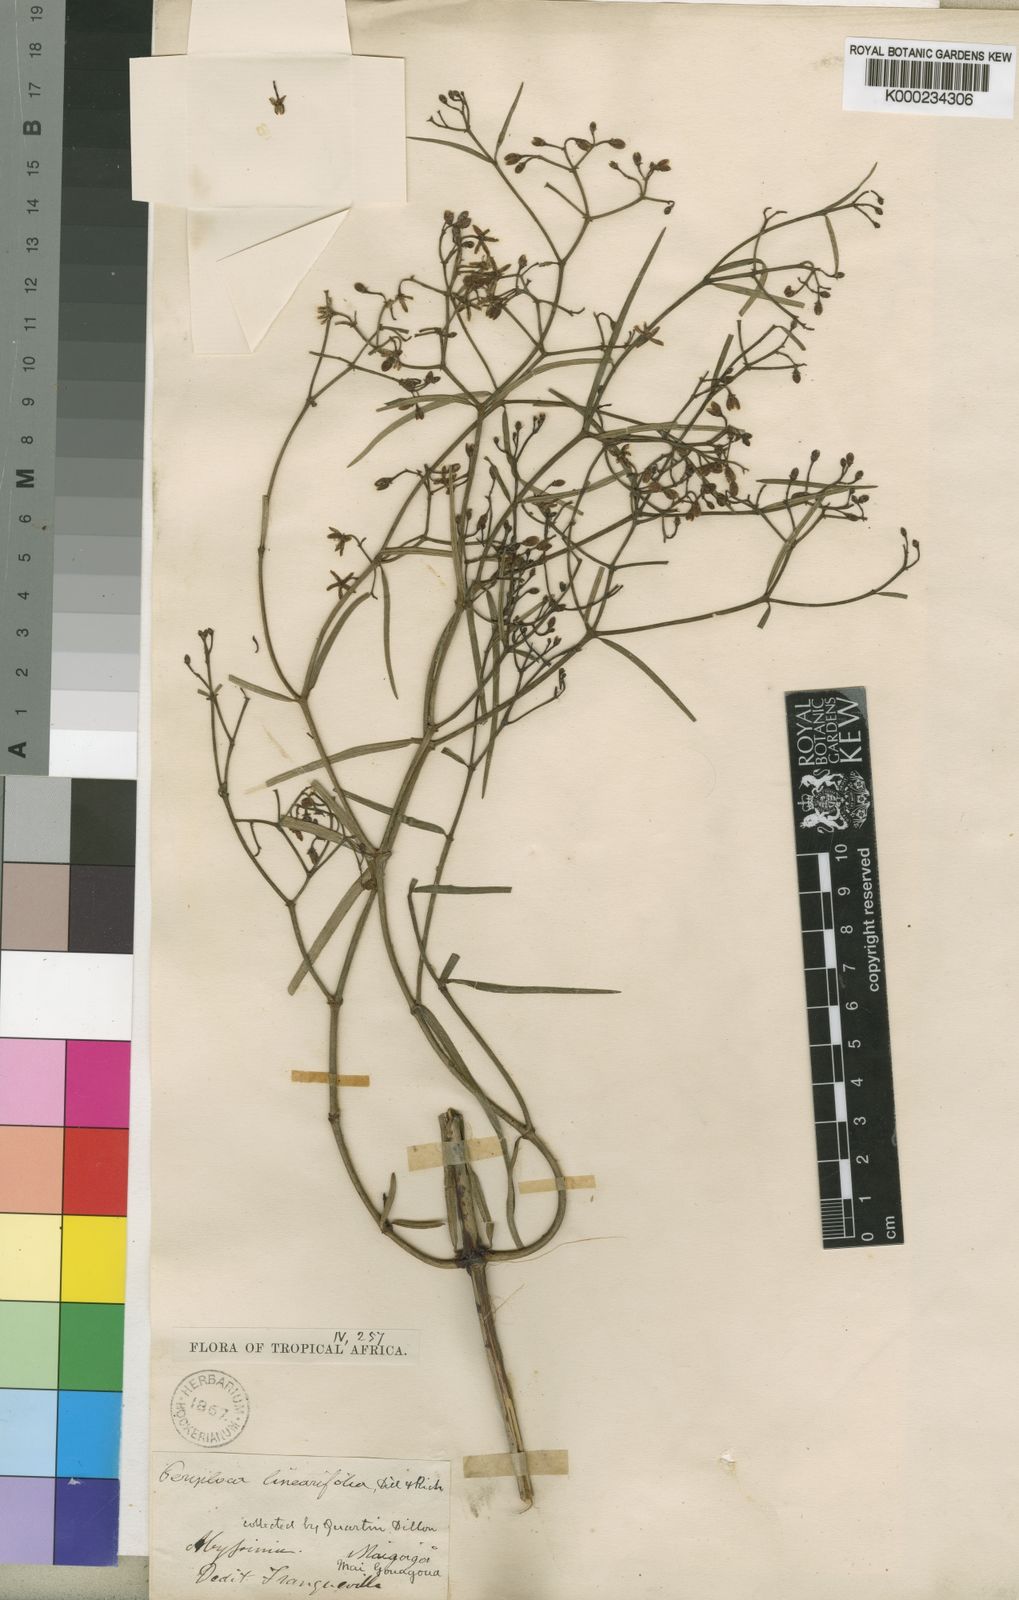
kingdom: Plantae
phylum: Tracheophyta
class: Magnoliopsida
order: Gentianales
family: Apocynaceae
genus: Periploca
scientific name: Periploca linearifolia
